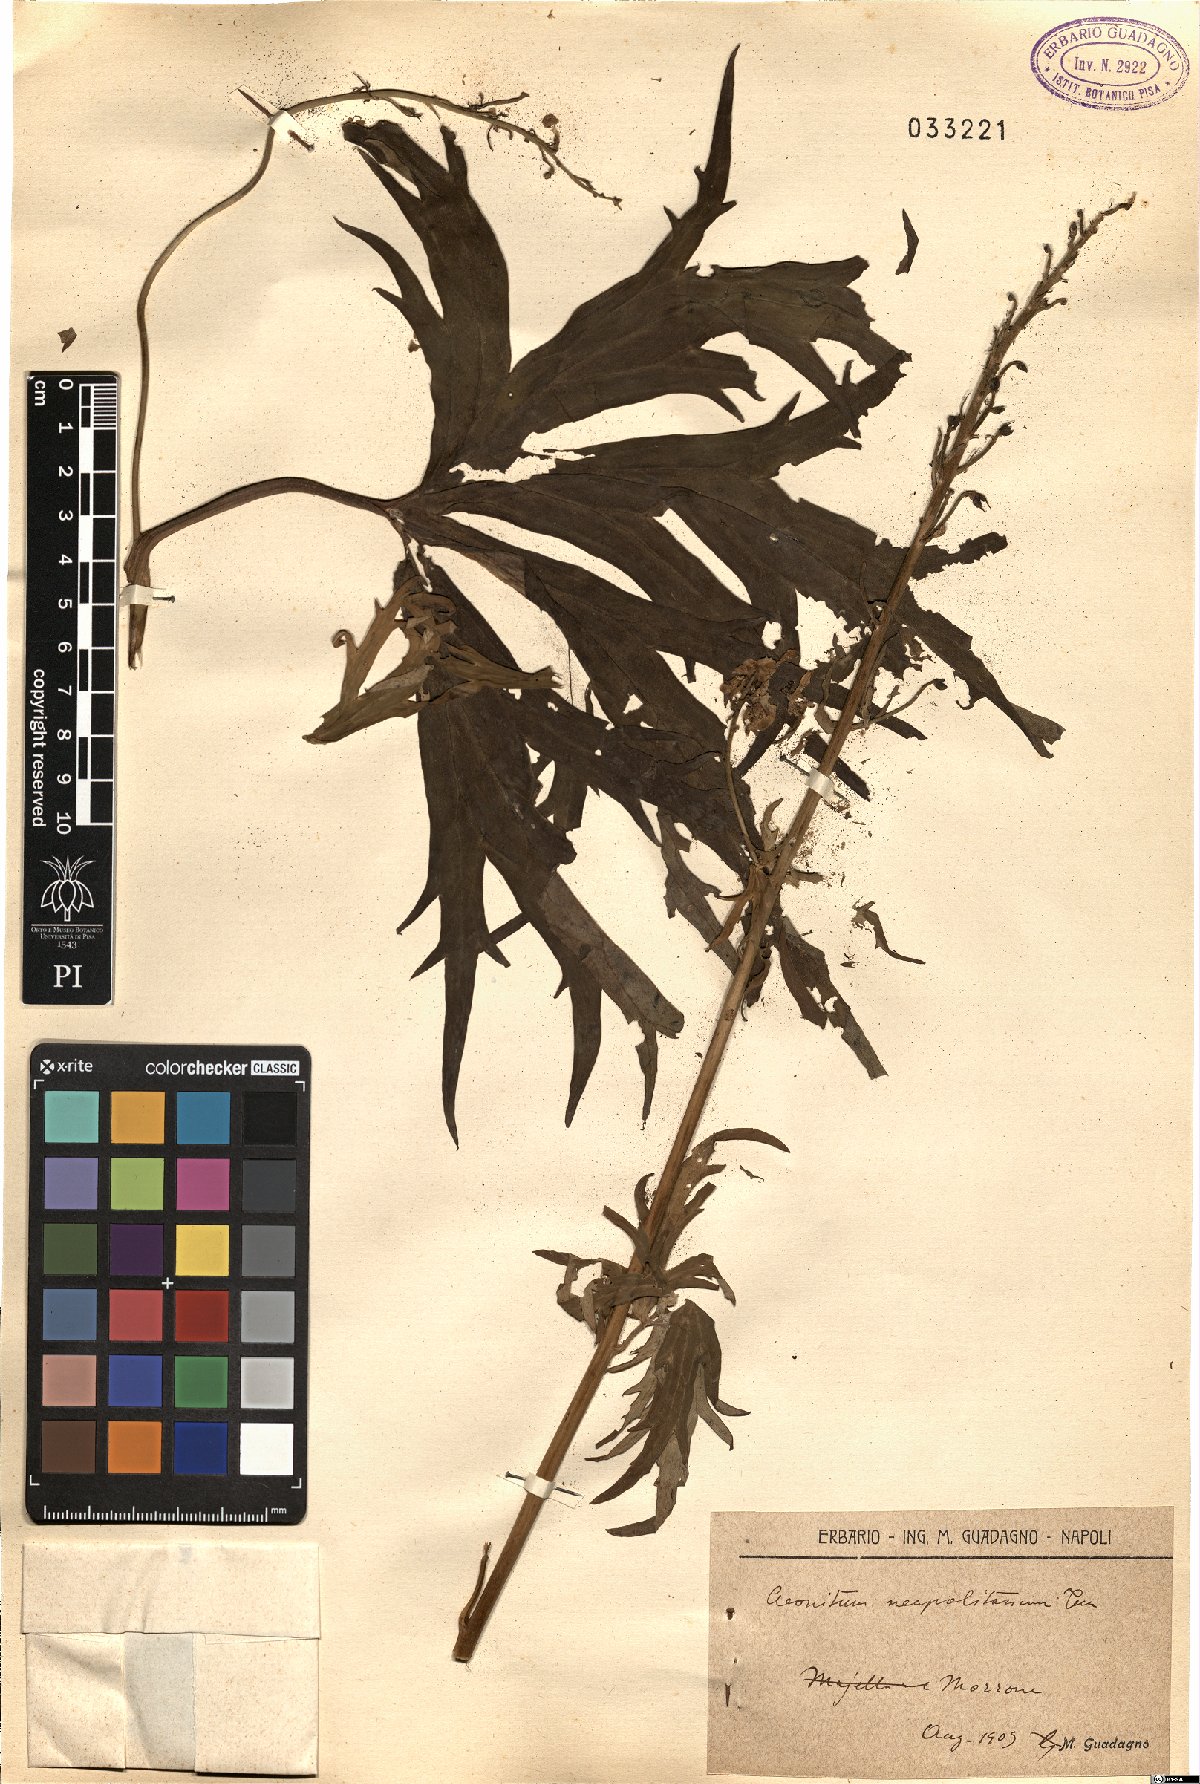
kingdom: Plantae
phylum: Tracheophyta
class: Magnoliopsida
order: Ranunculales
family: Ranunculaceae
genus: Aconitum
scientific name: Aconitum lycoctonum
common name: Wolf's-bane
